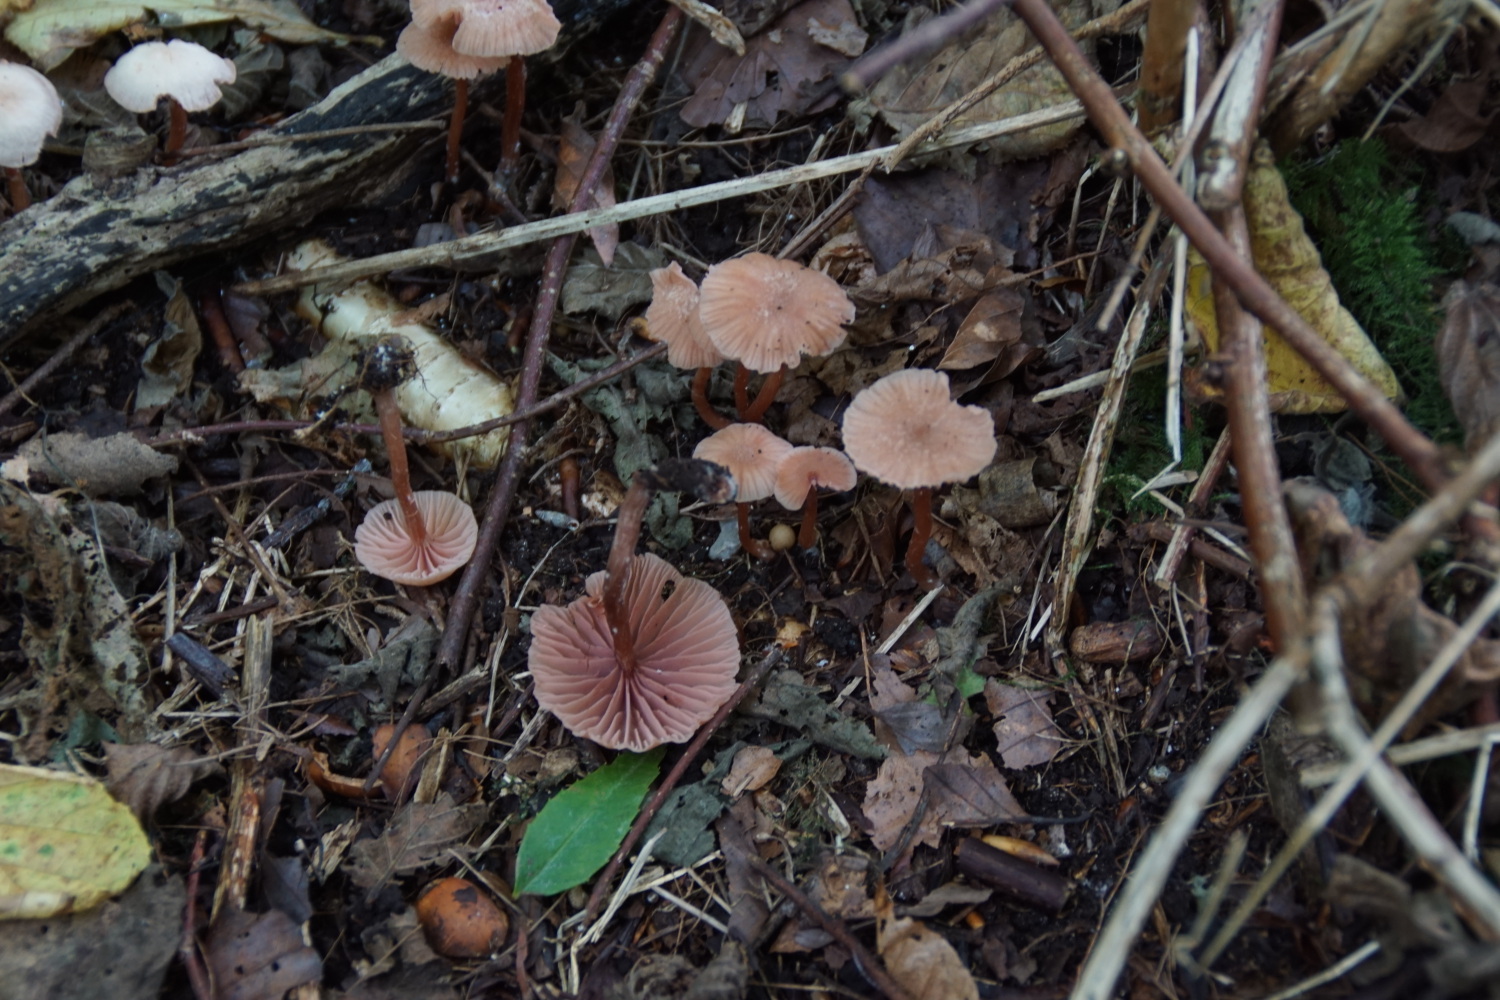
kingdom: Fungi
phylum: Basidiomycota
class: Agaricomycetes
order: Agaricales
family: Hydnangiaceae
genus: Laccaria
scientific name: Laccaria laccata
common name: rød ametysthat
